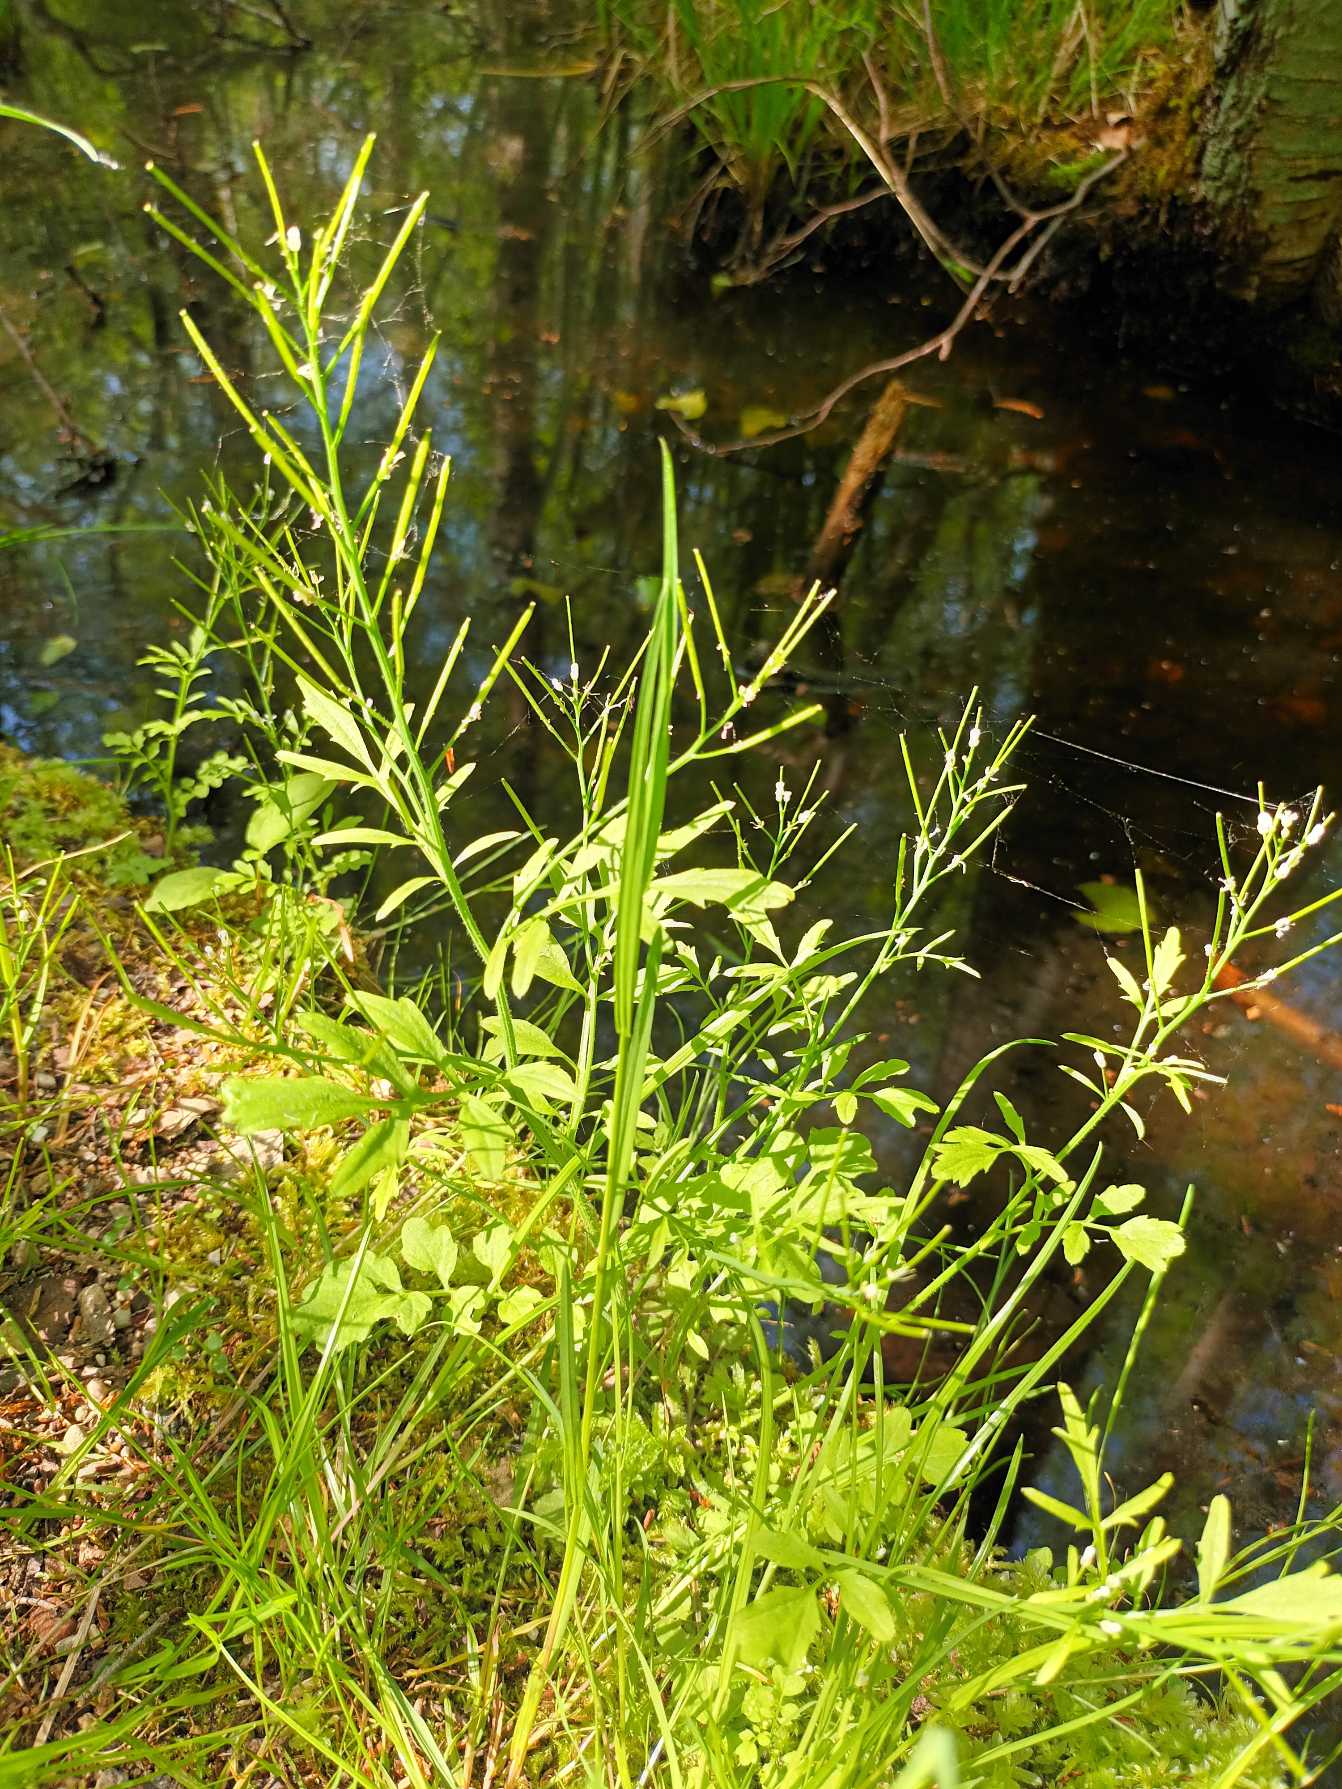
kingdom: Plantae
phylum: Tracheophyta
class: Magnoliopsida
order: Brassicales
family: Brassicaceae
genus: Cardamine
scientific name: Cardamine flexuosa
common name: Skov-springklap
